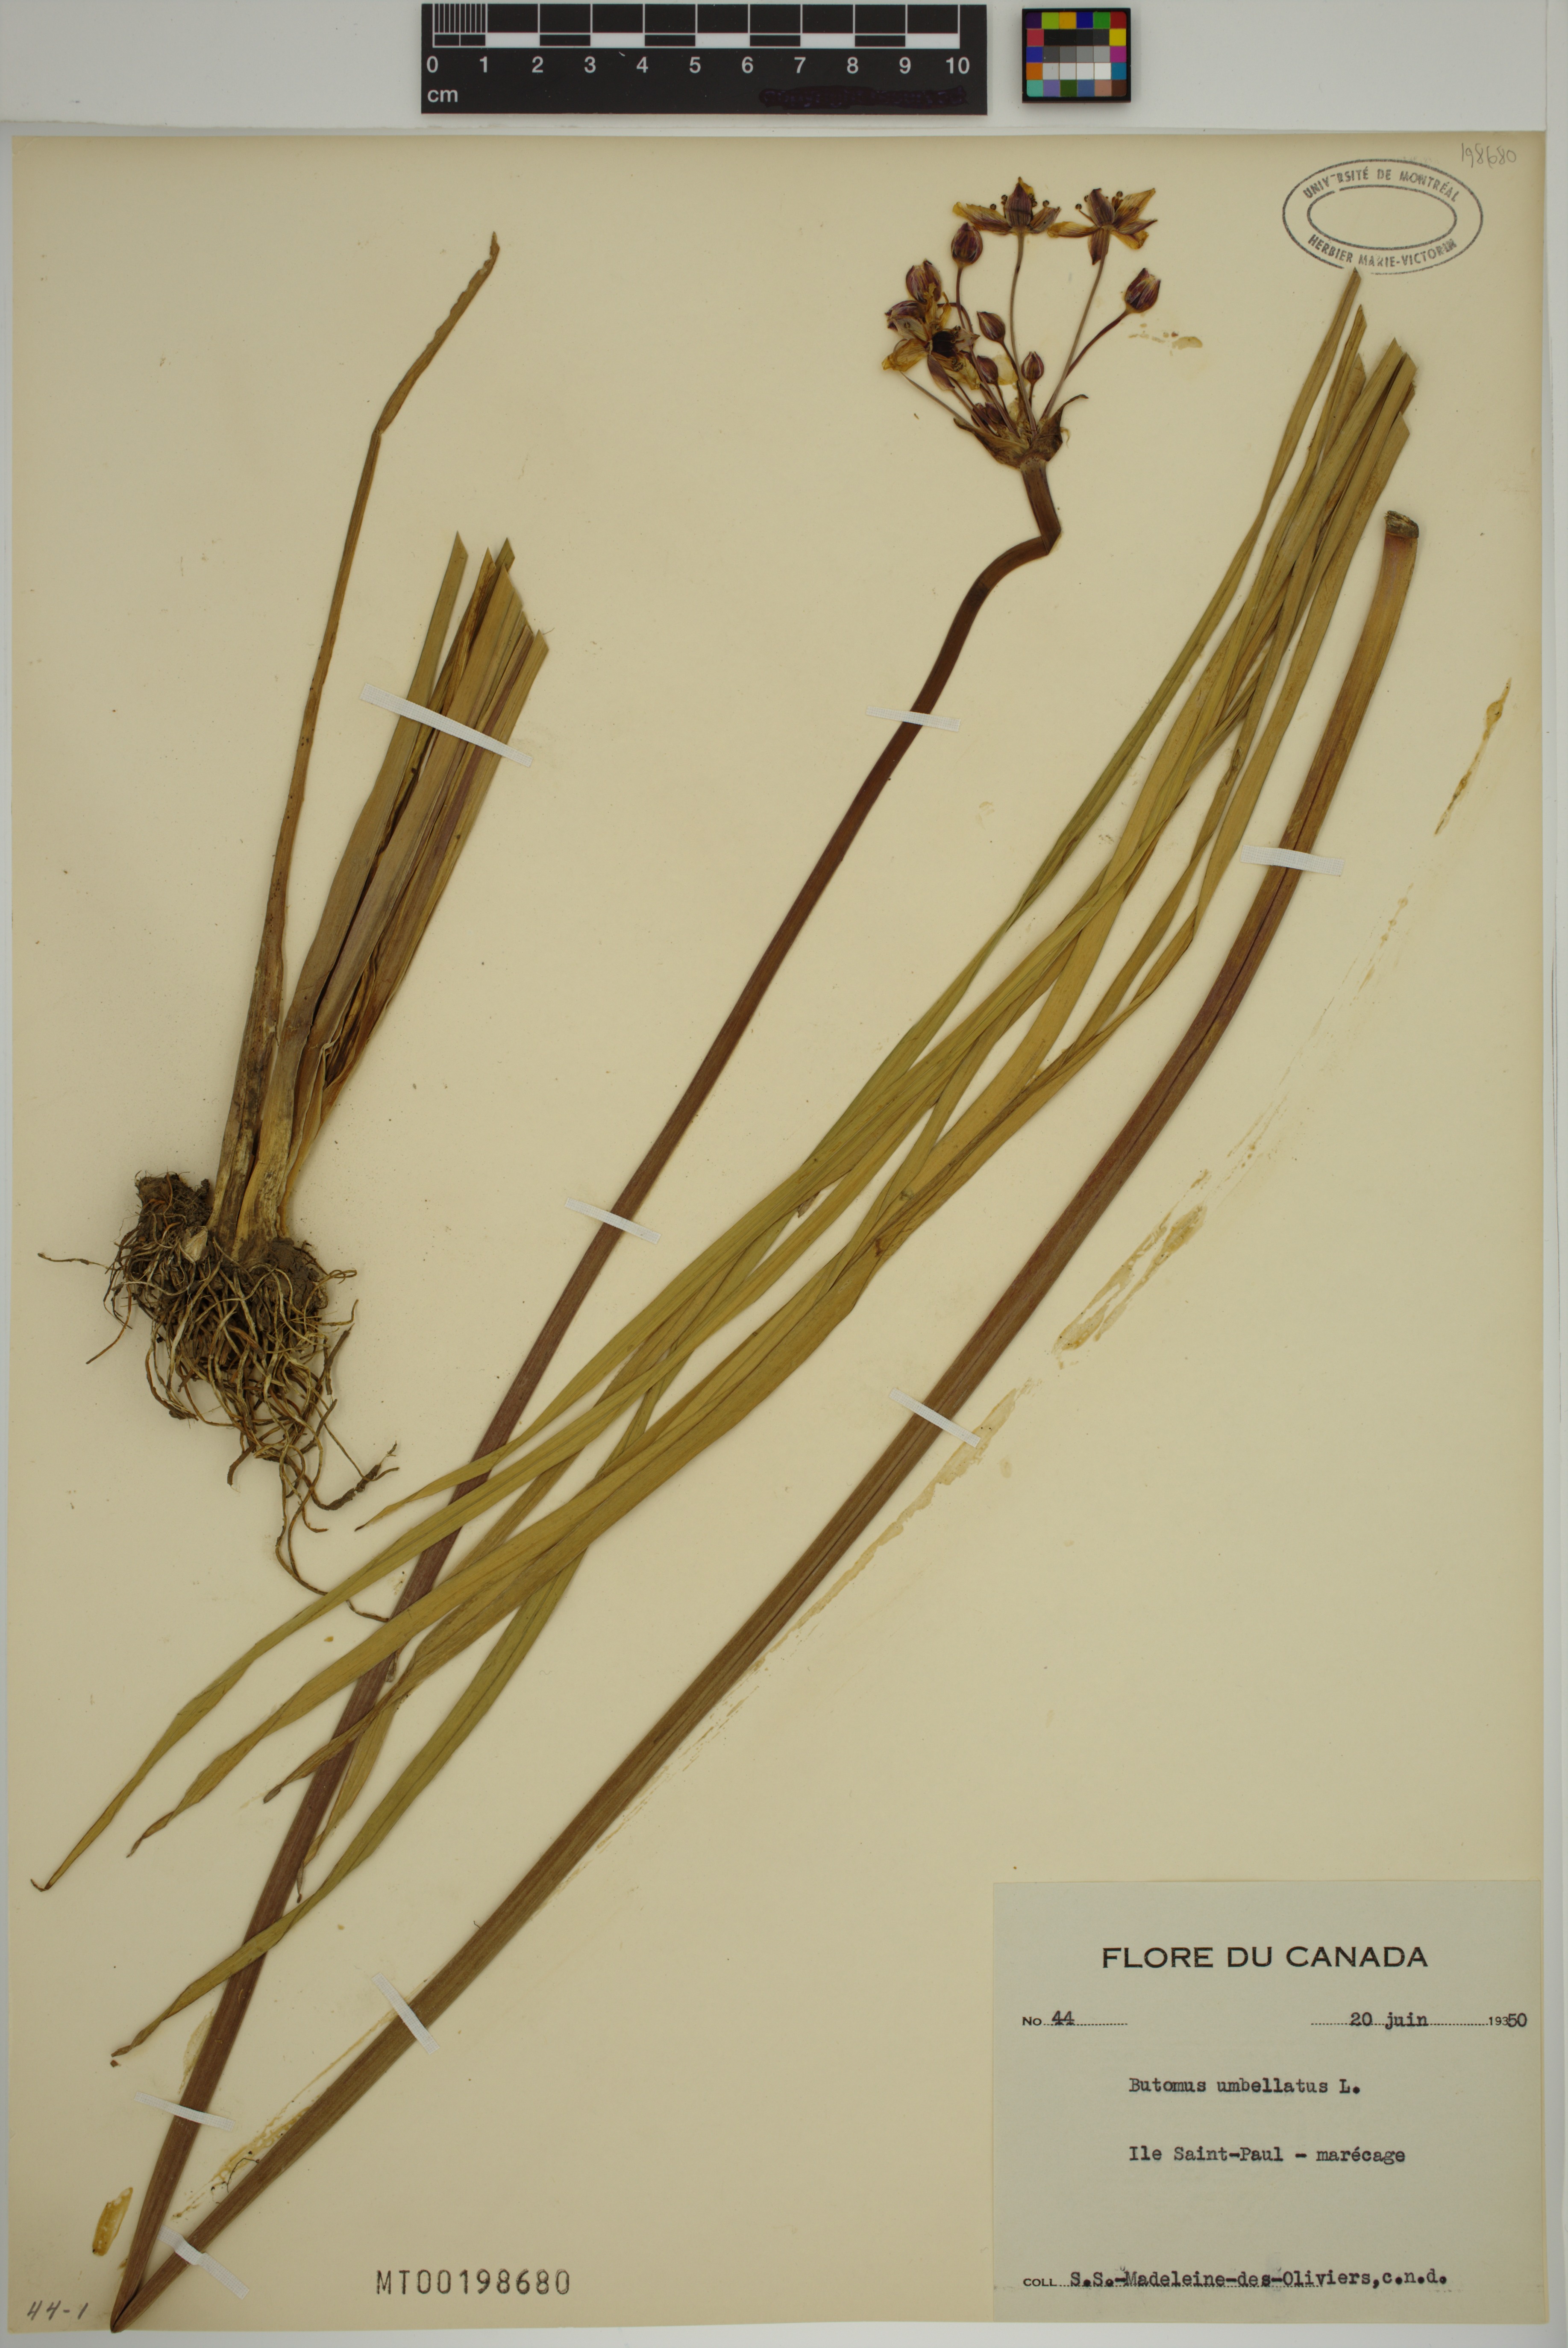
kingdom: Plantae
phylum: Tracheophyta
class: Liliopsida
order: Alismatales
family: Butomaceae
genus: Butomus
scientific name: Butomus umbellatus
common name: Flowering-rush
